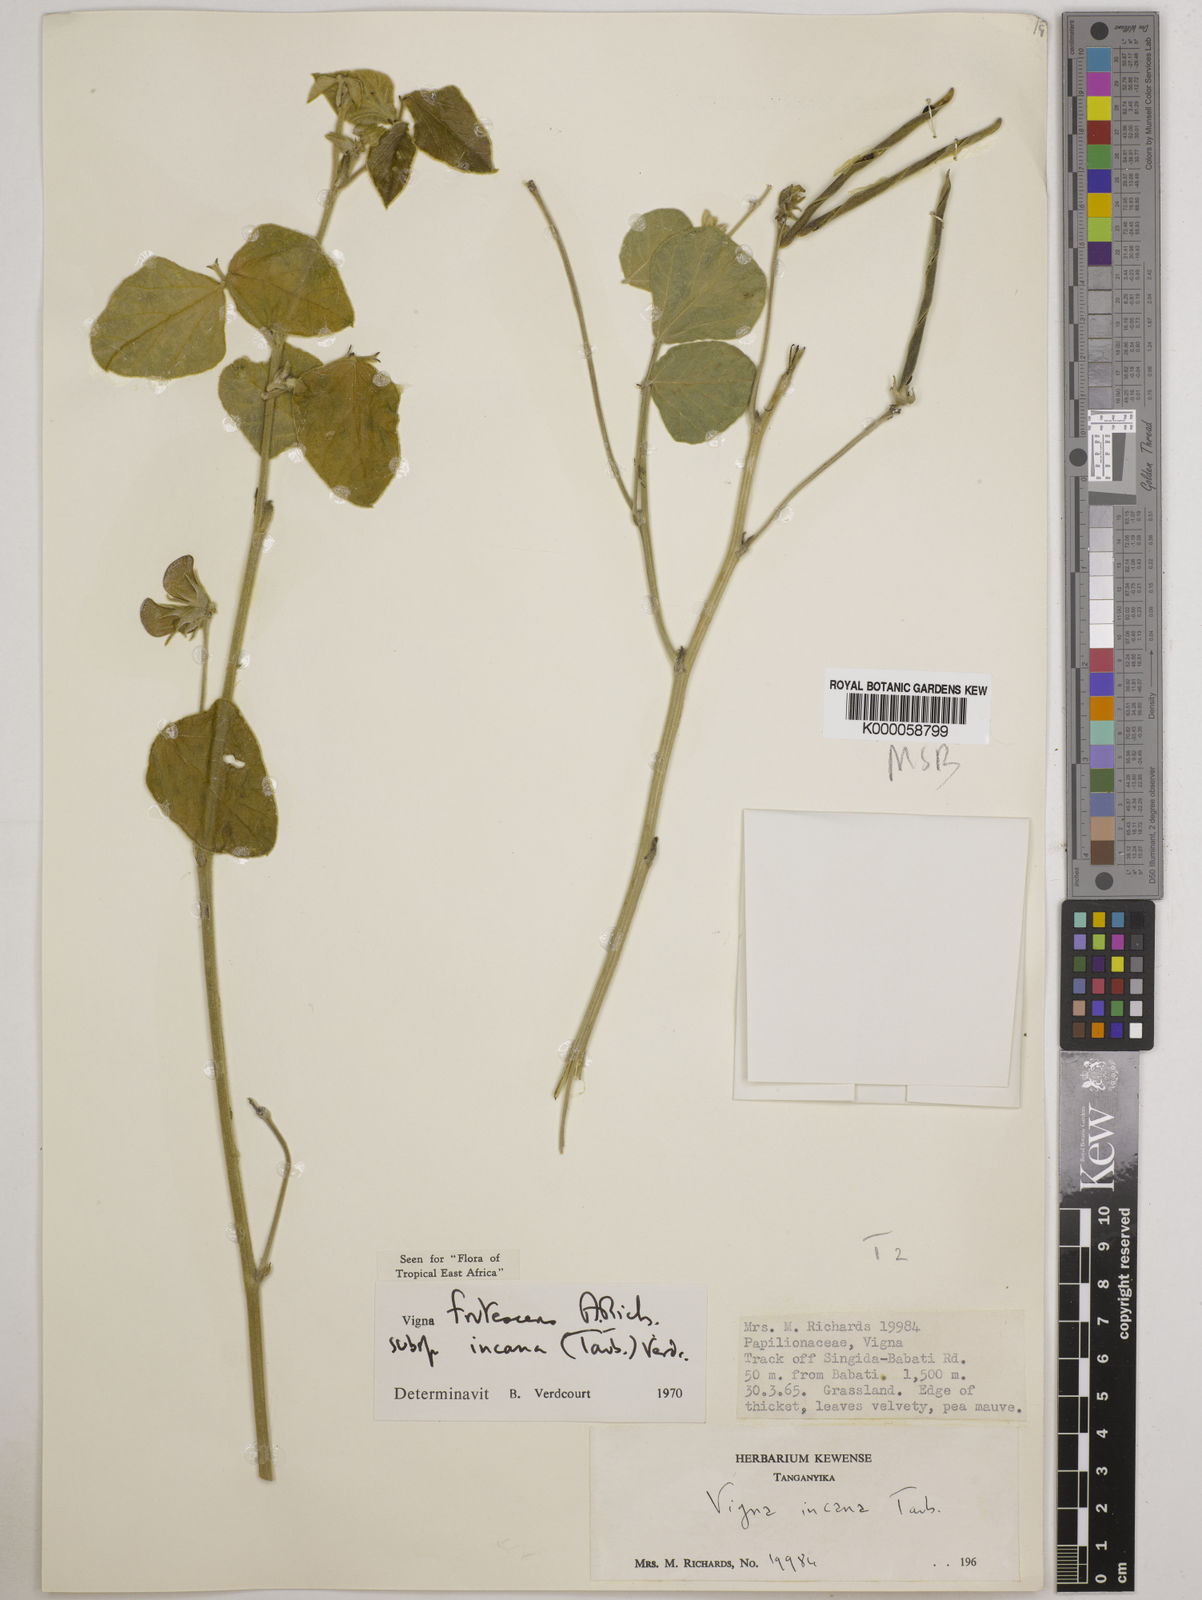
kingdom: Plantae
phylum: Tracheophyta
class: Magnoliopsida
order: Fabales
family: Fabaceae
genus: Vigna
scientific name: Vigna
